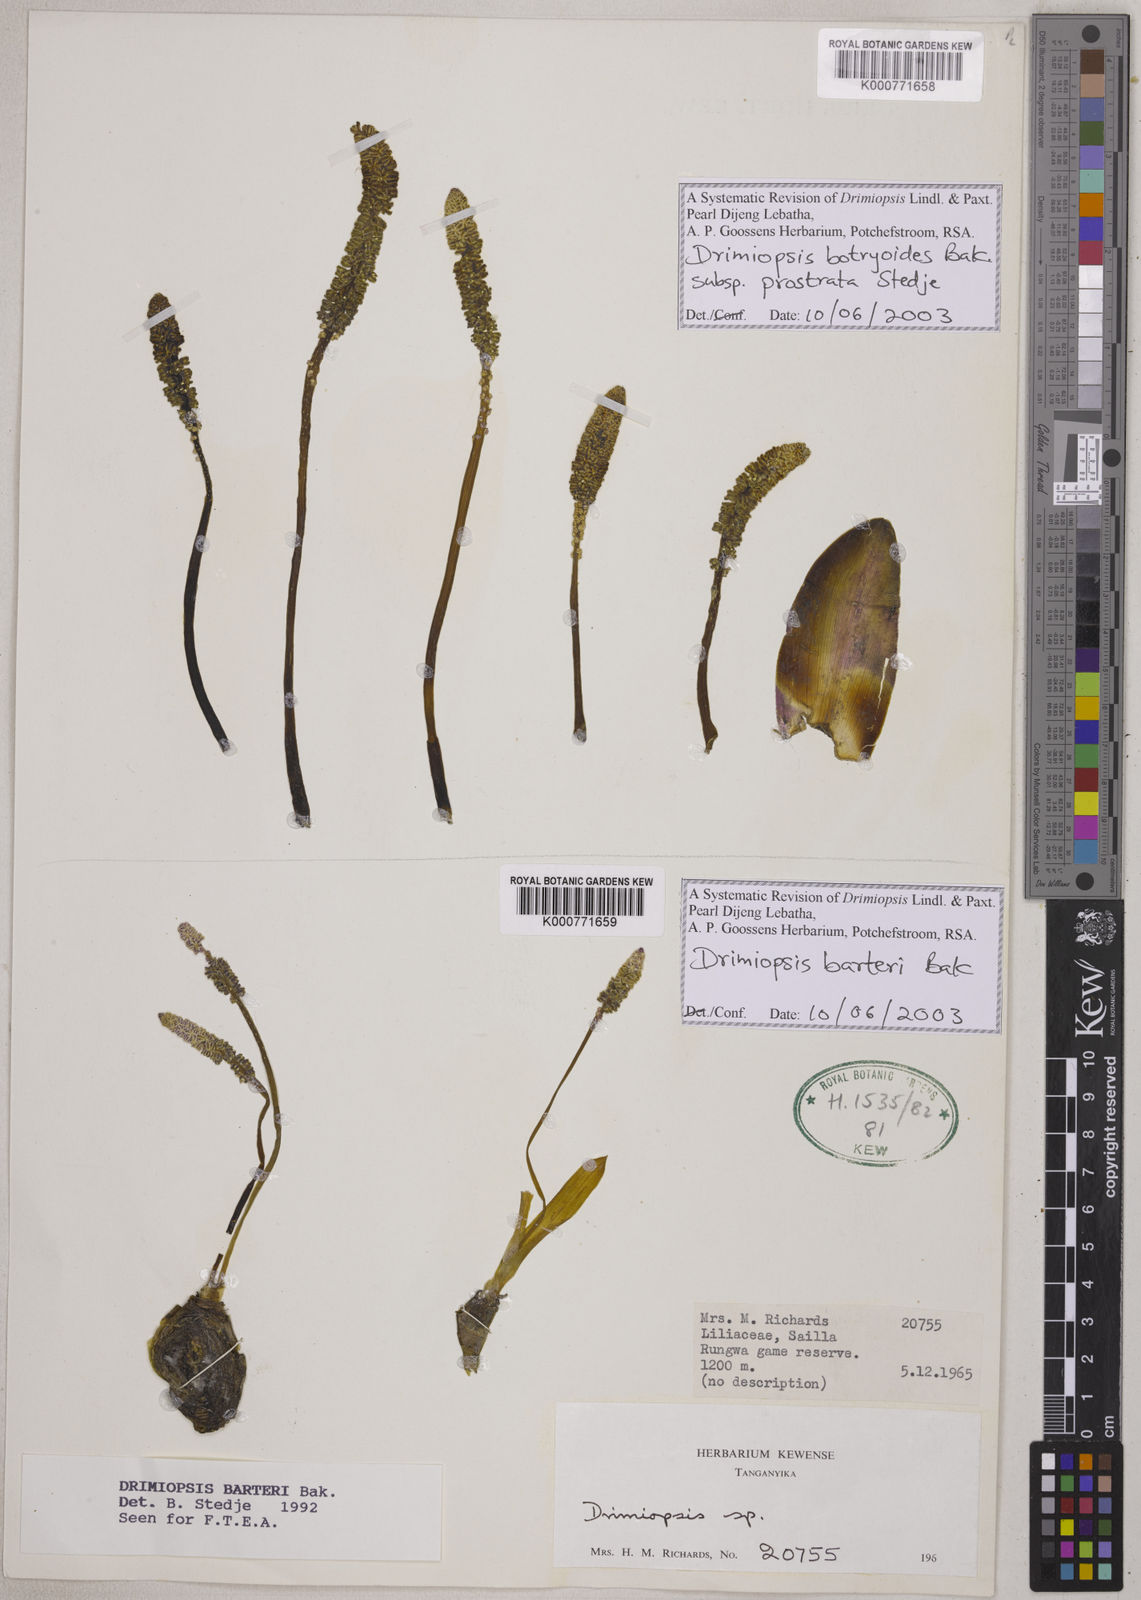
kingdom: Plantae
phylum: Tracheophyta
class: Liliopsida
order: Asparagales
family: Asparagaceae
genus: Drimiopsis
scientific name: Drimiopsis botryoides
